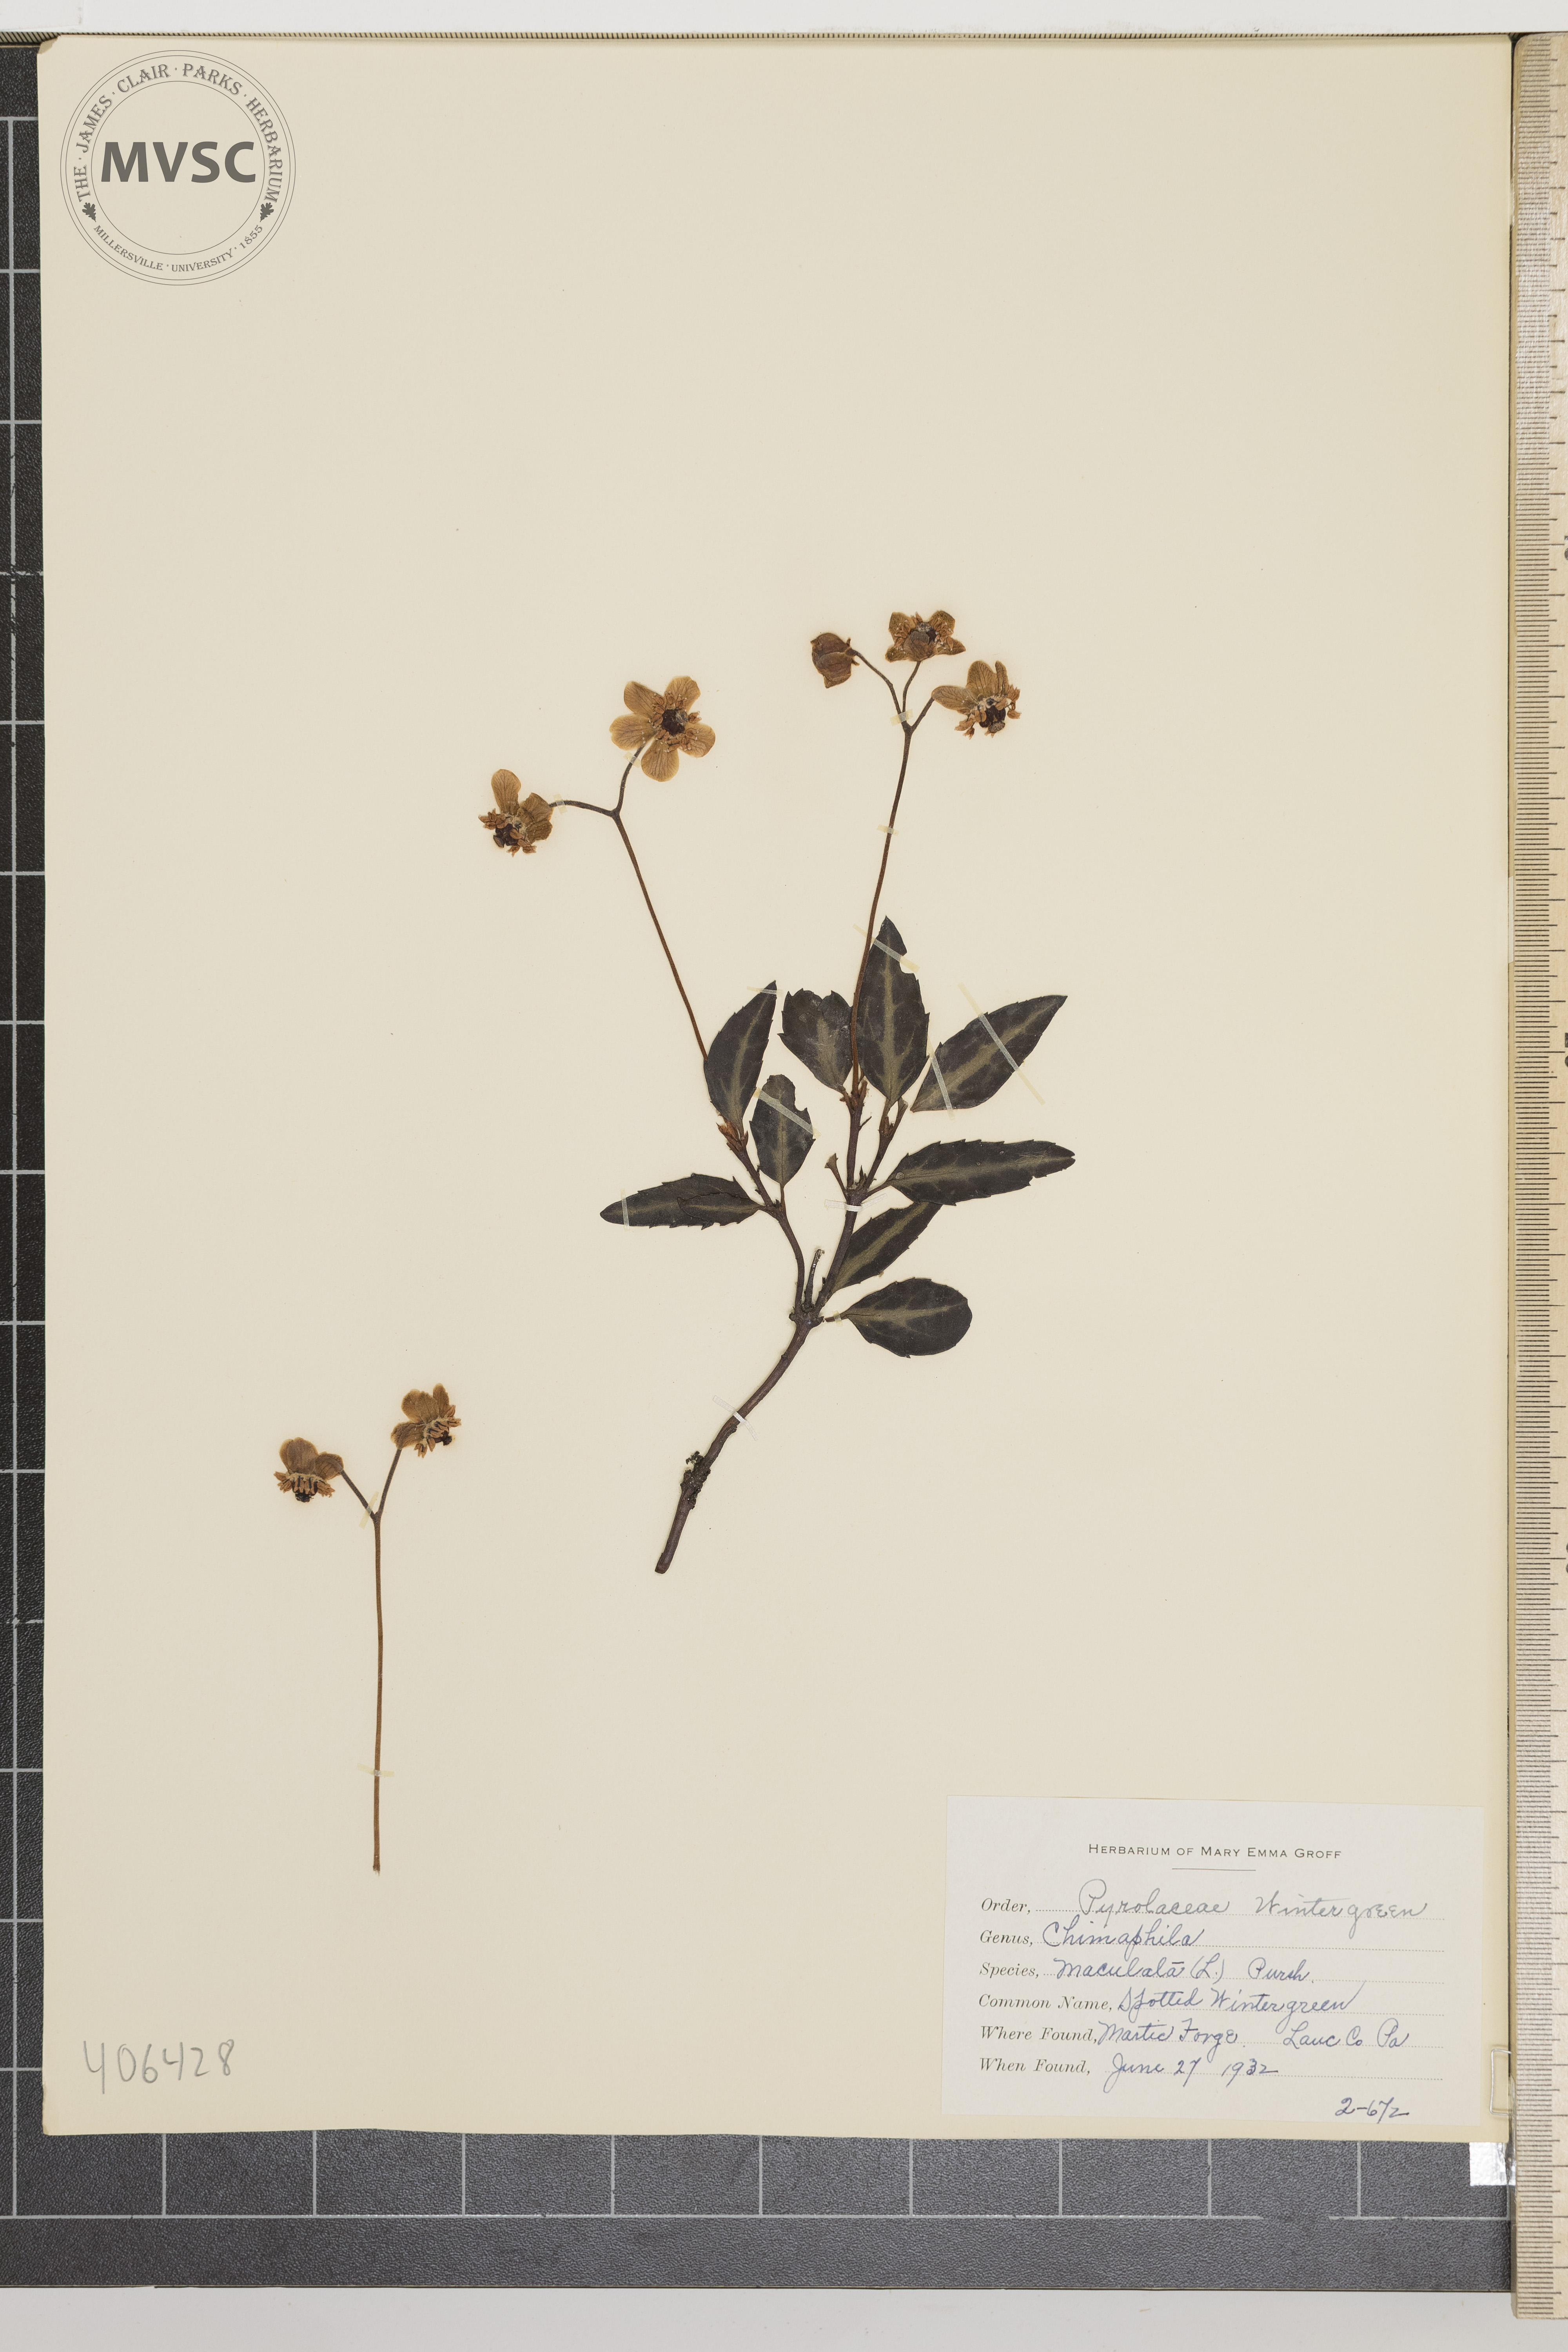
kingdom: Plantae
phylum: Tracheophyta
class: Magnoliopsida
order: Ericales
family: Ericaceae
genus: Chimaphila
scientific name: Chimaphila maculata
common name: spotted Wintergreen
